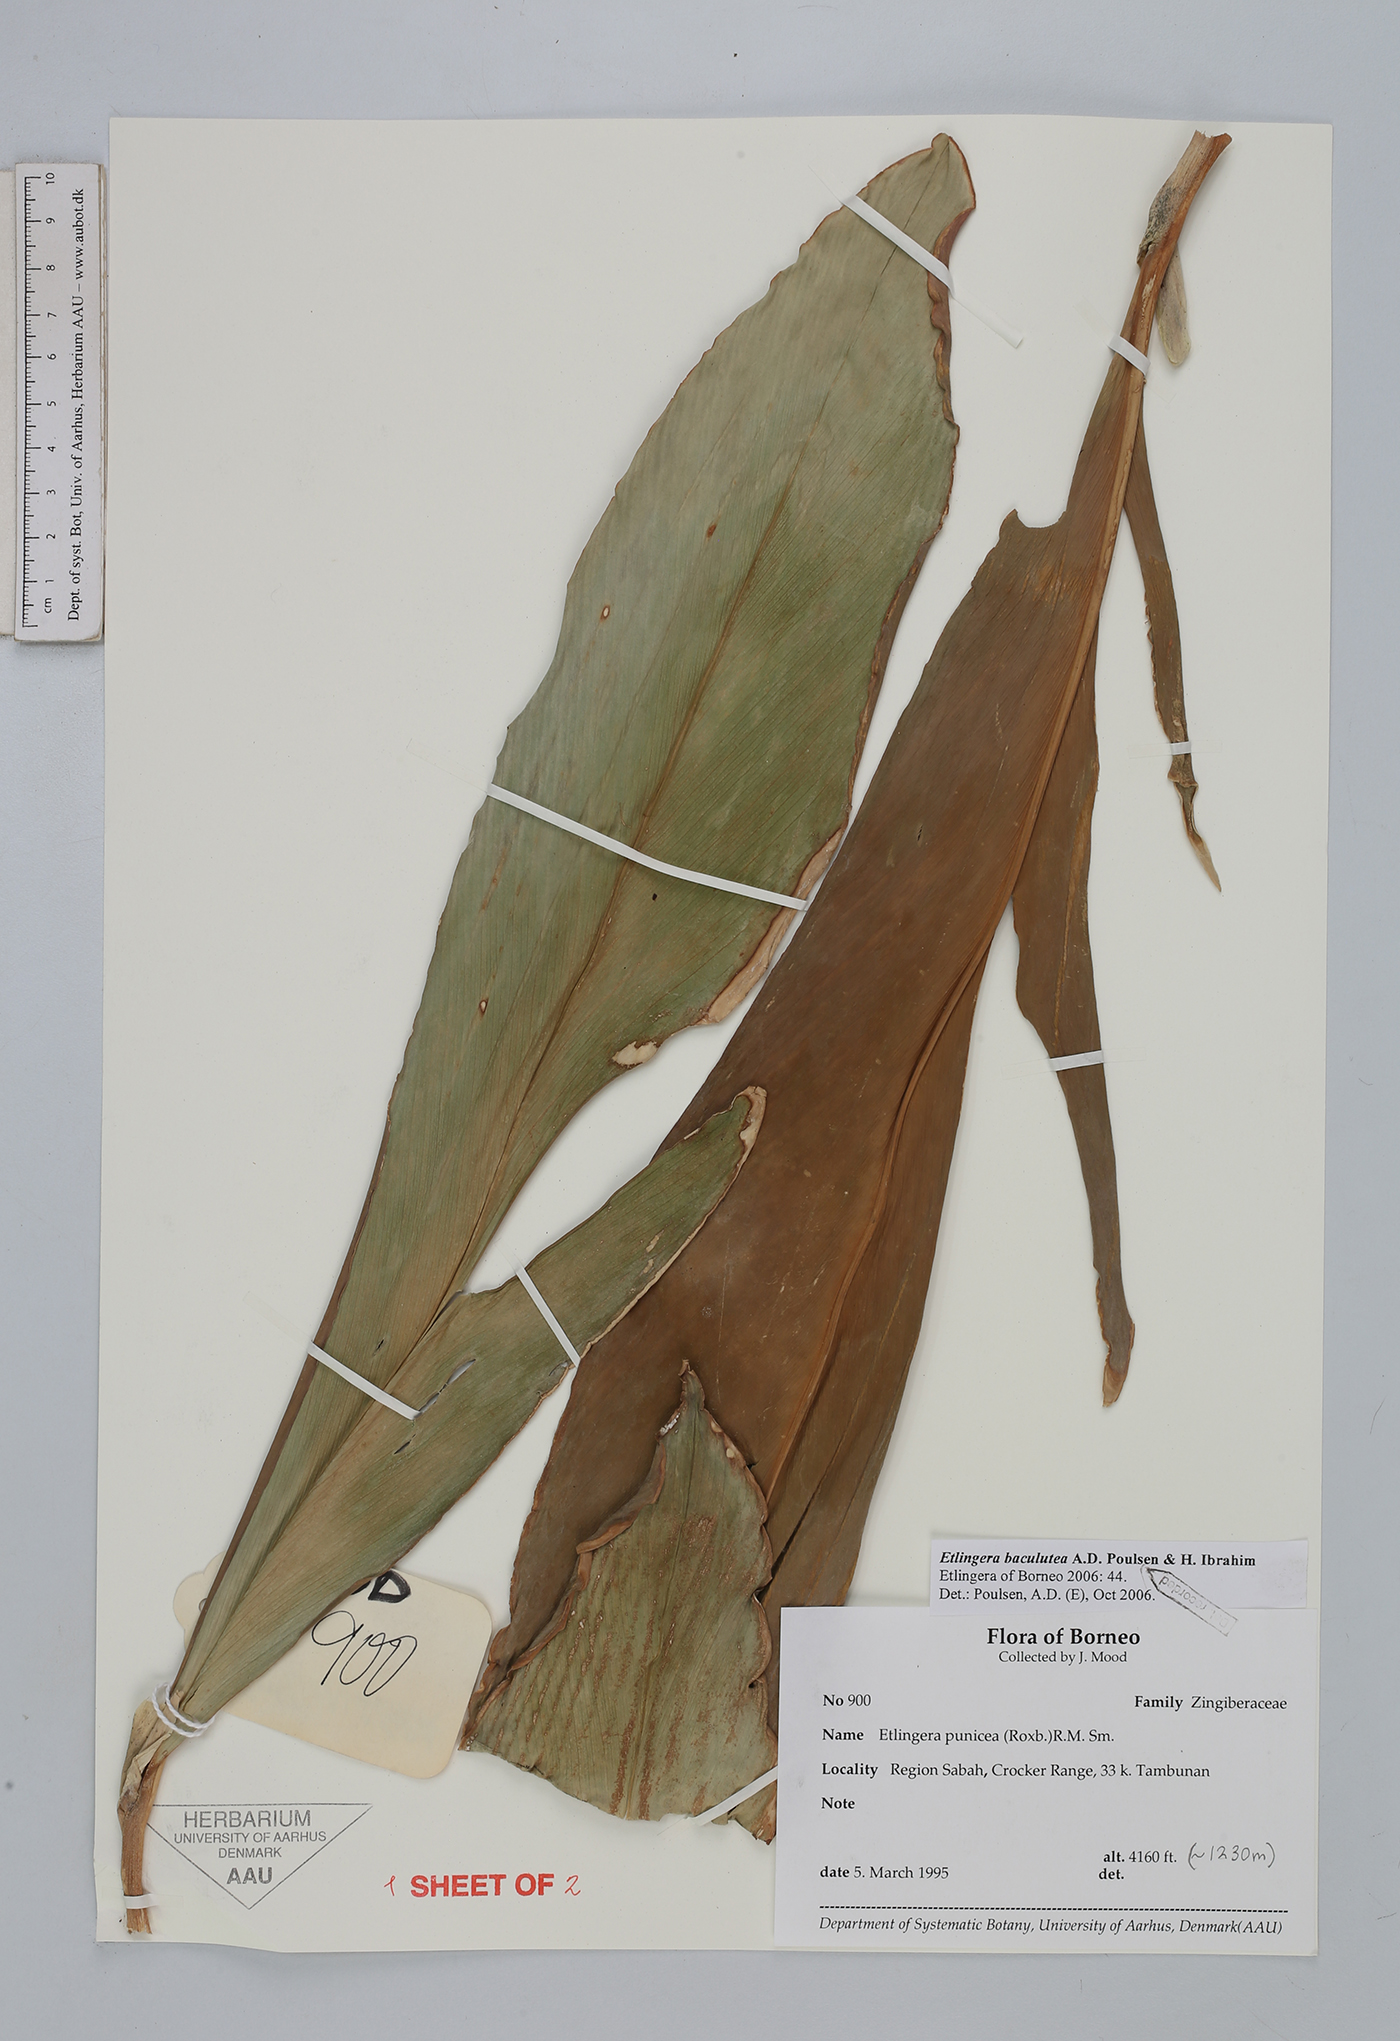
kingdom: Plantae
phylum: Tracheophyta
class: Liliopsida
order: Zingiberales
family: Zingiberaceae
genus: Etlingera
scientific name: Etlingera baculutea
